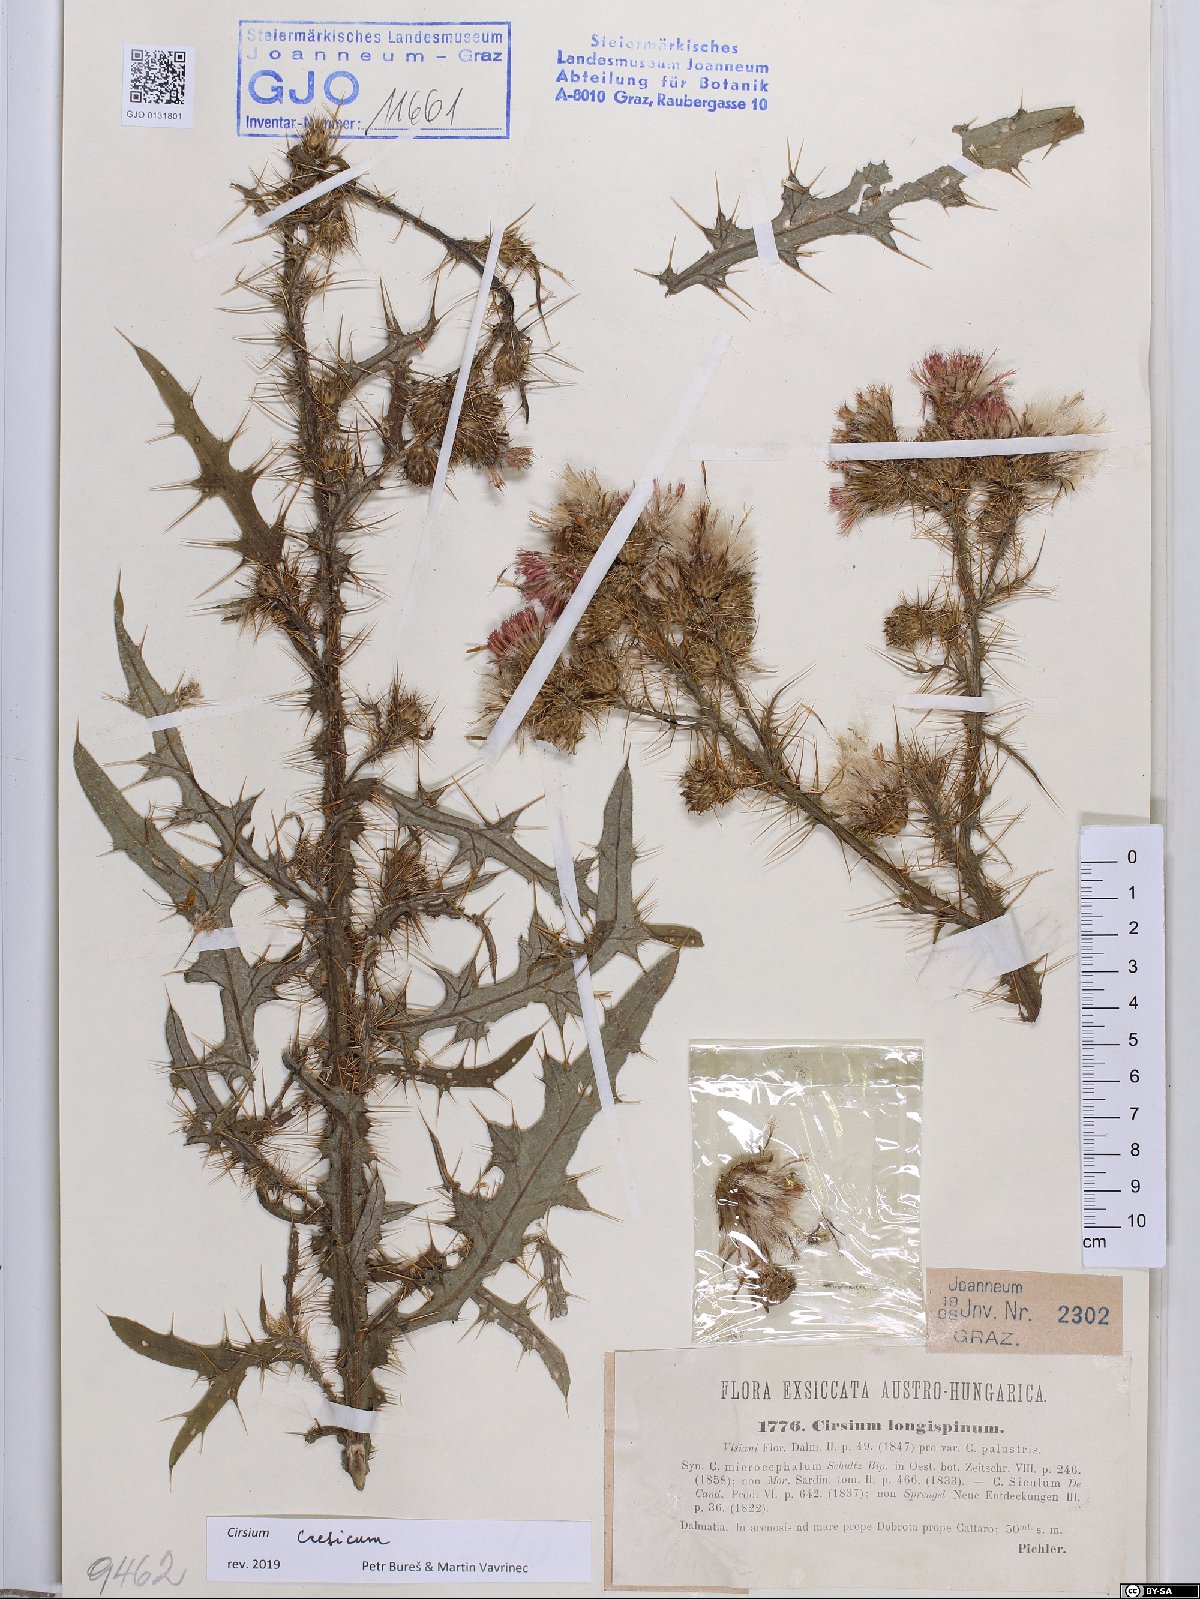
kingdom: Plantae
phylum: Tracheophyta
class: Magnoliopsida
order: Asterales
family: Asteraceae
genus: Cirsium
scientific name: Cirsium creticum
